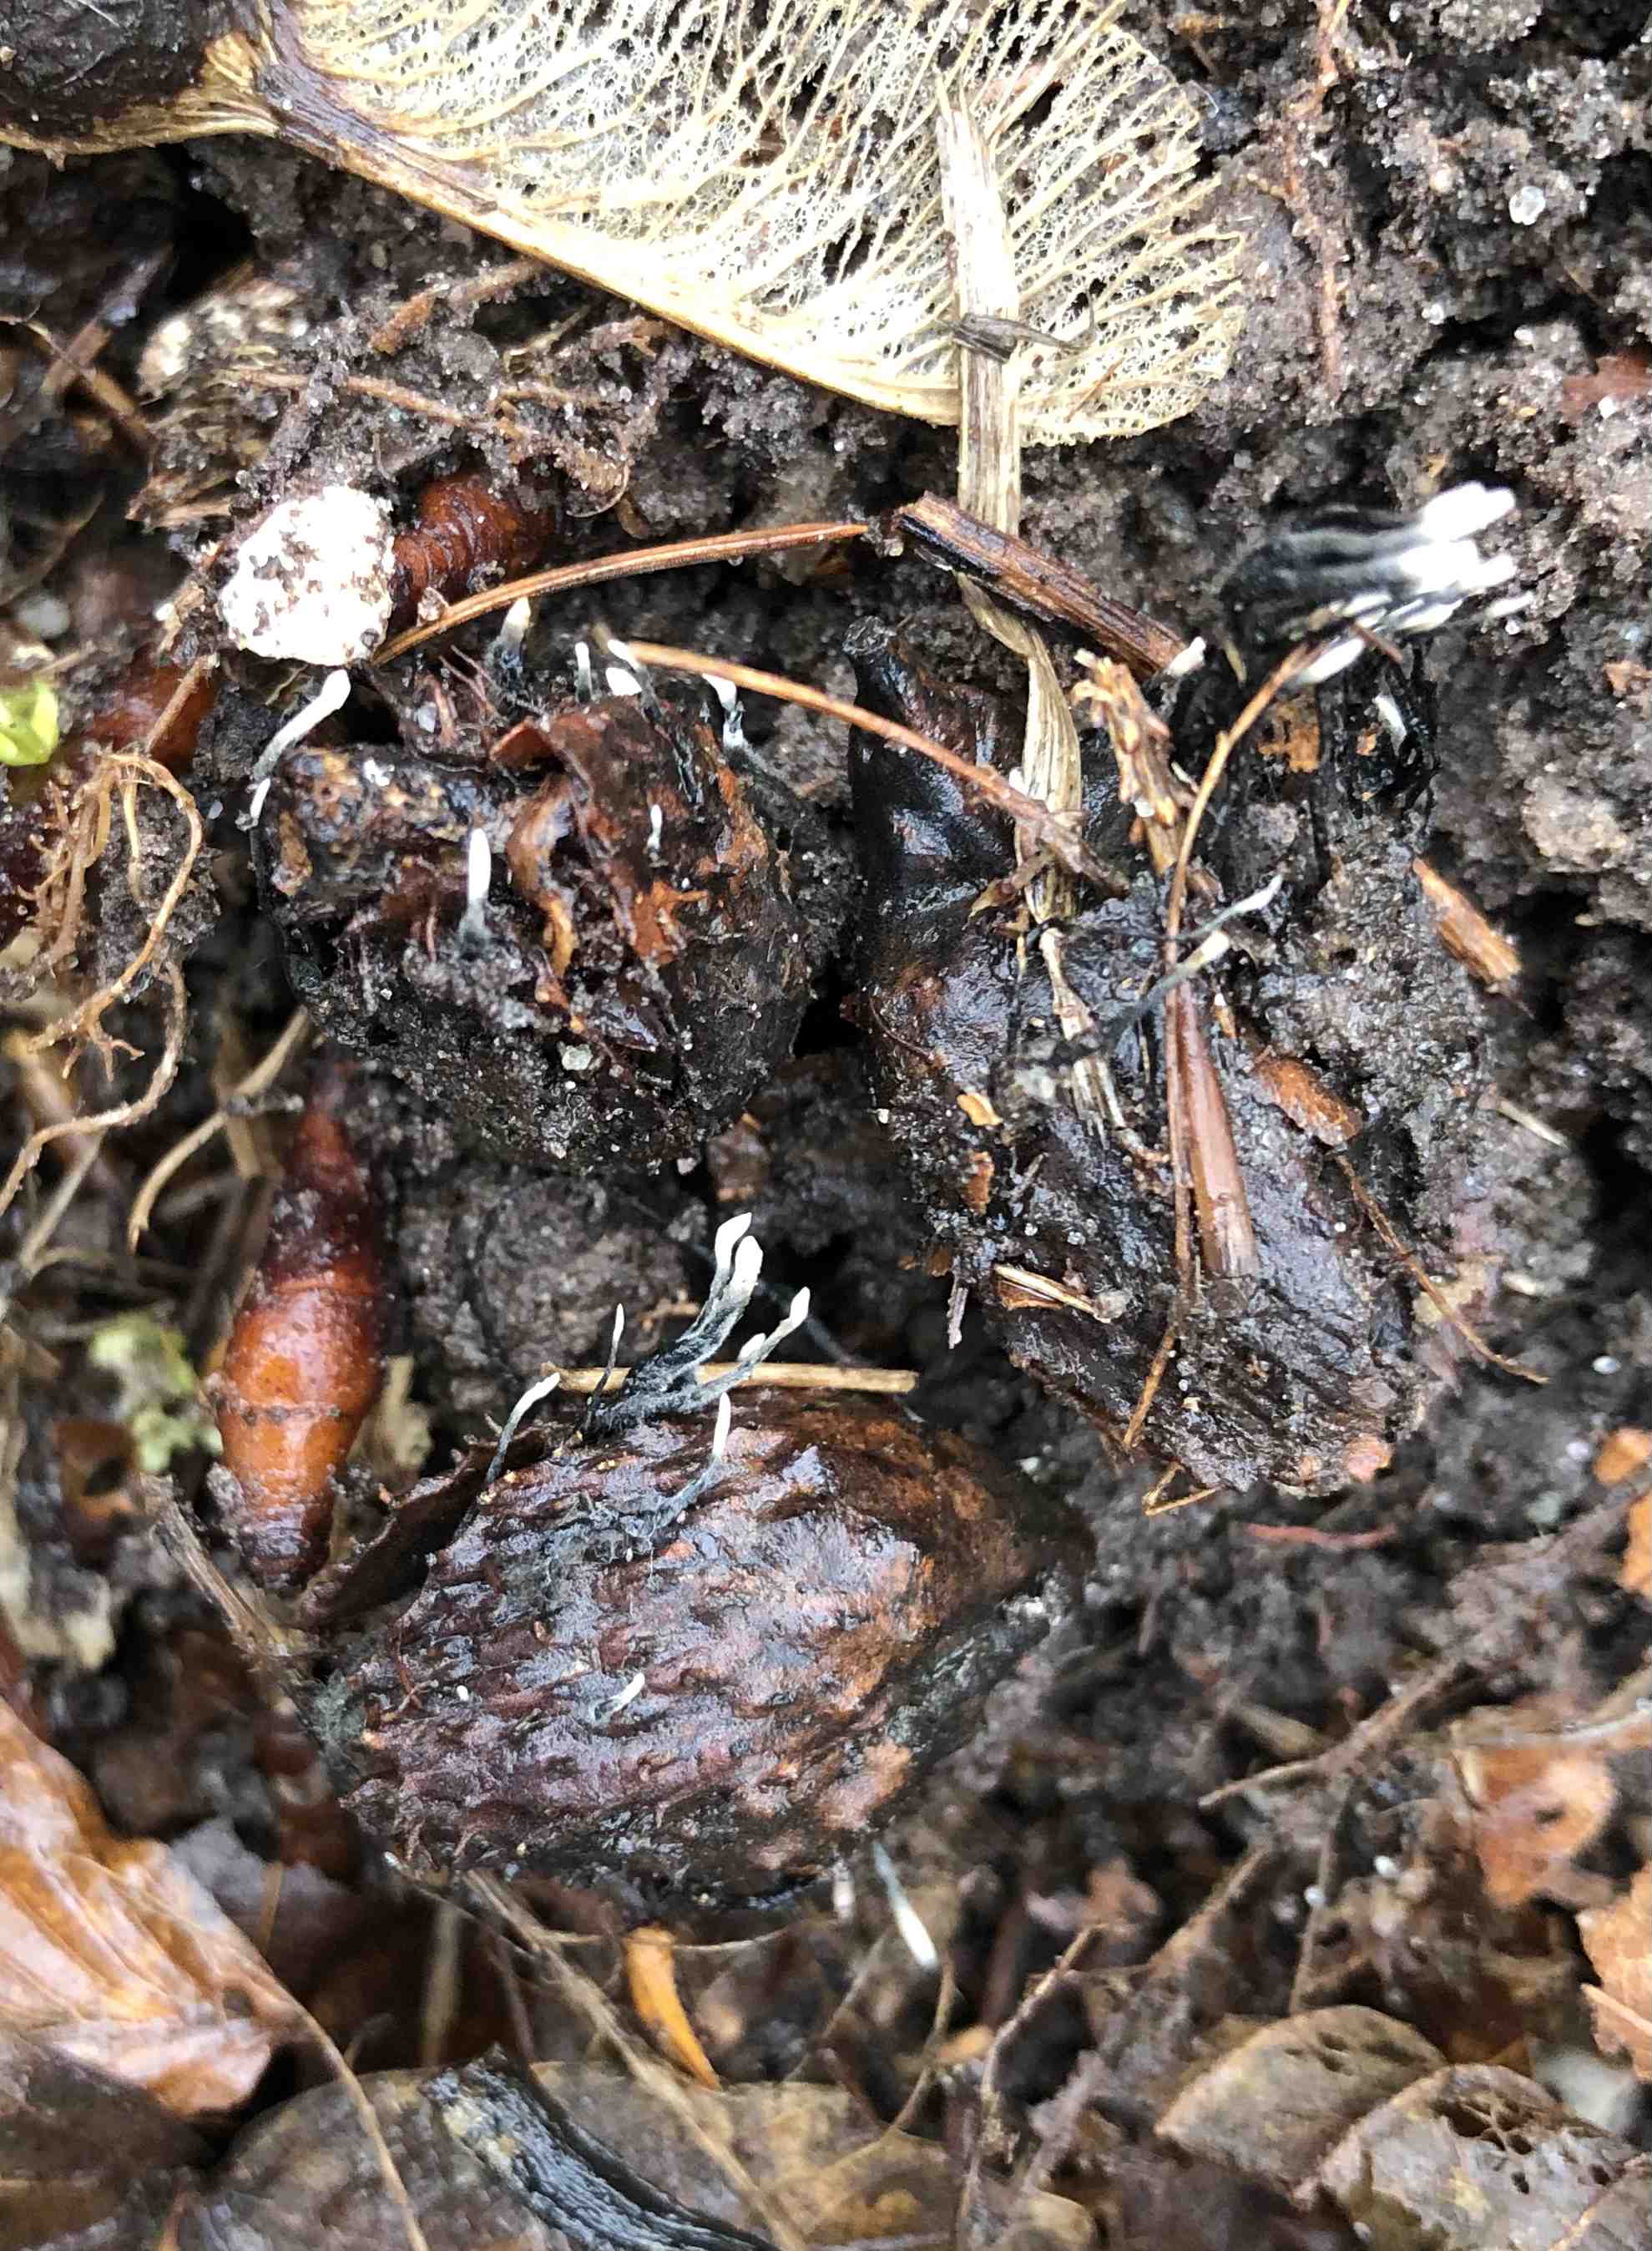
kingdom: Fungi
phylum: Ascomycota
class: Sordariomycetes
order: Xylariales
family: Xylariaceae
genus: Xylaria
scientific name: Xylaria carpophila
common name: bogskål-stødsvamp
